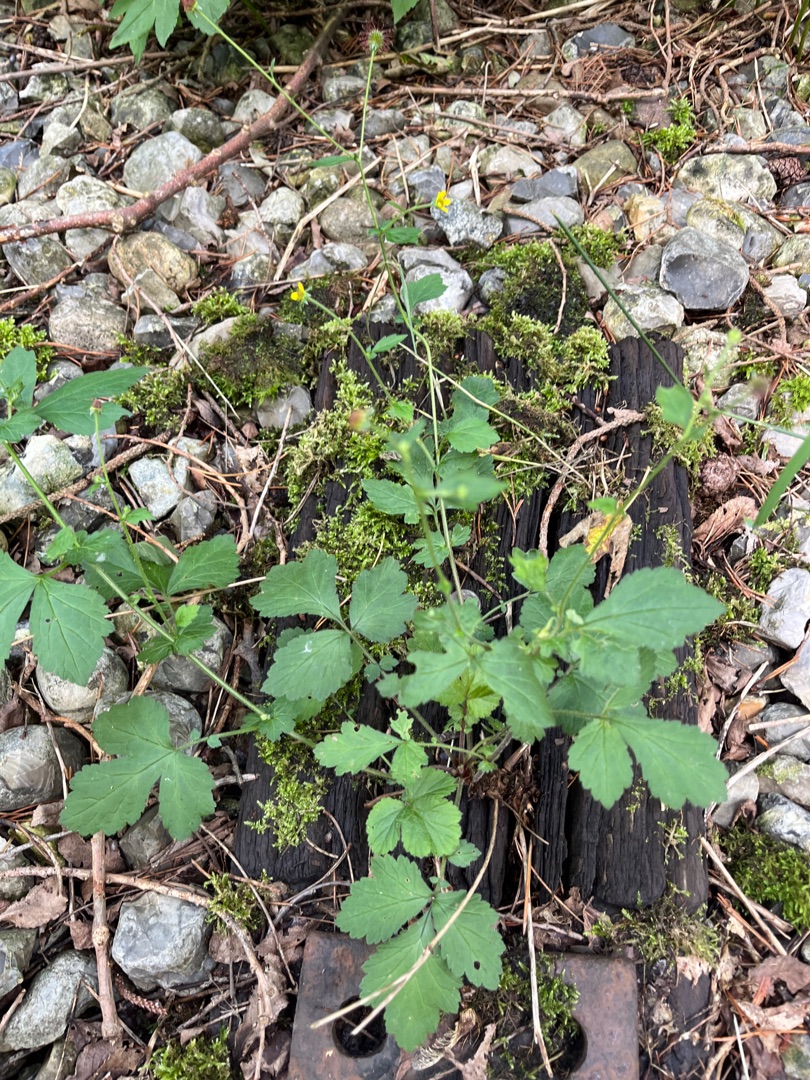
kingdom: Plantae
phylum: Tracheophyta
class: Magnoliopsida
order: Rosales
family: Rosaceae
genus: Geum
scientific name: Geum urbanum
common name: Feber-nellikerod
